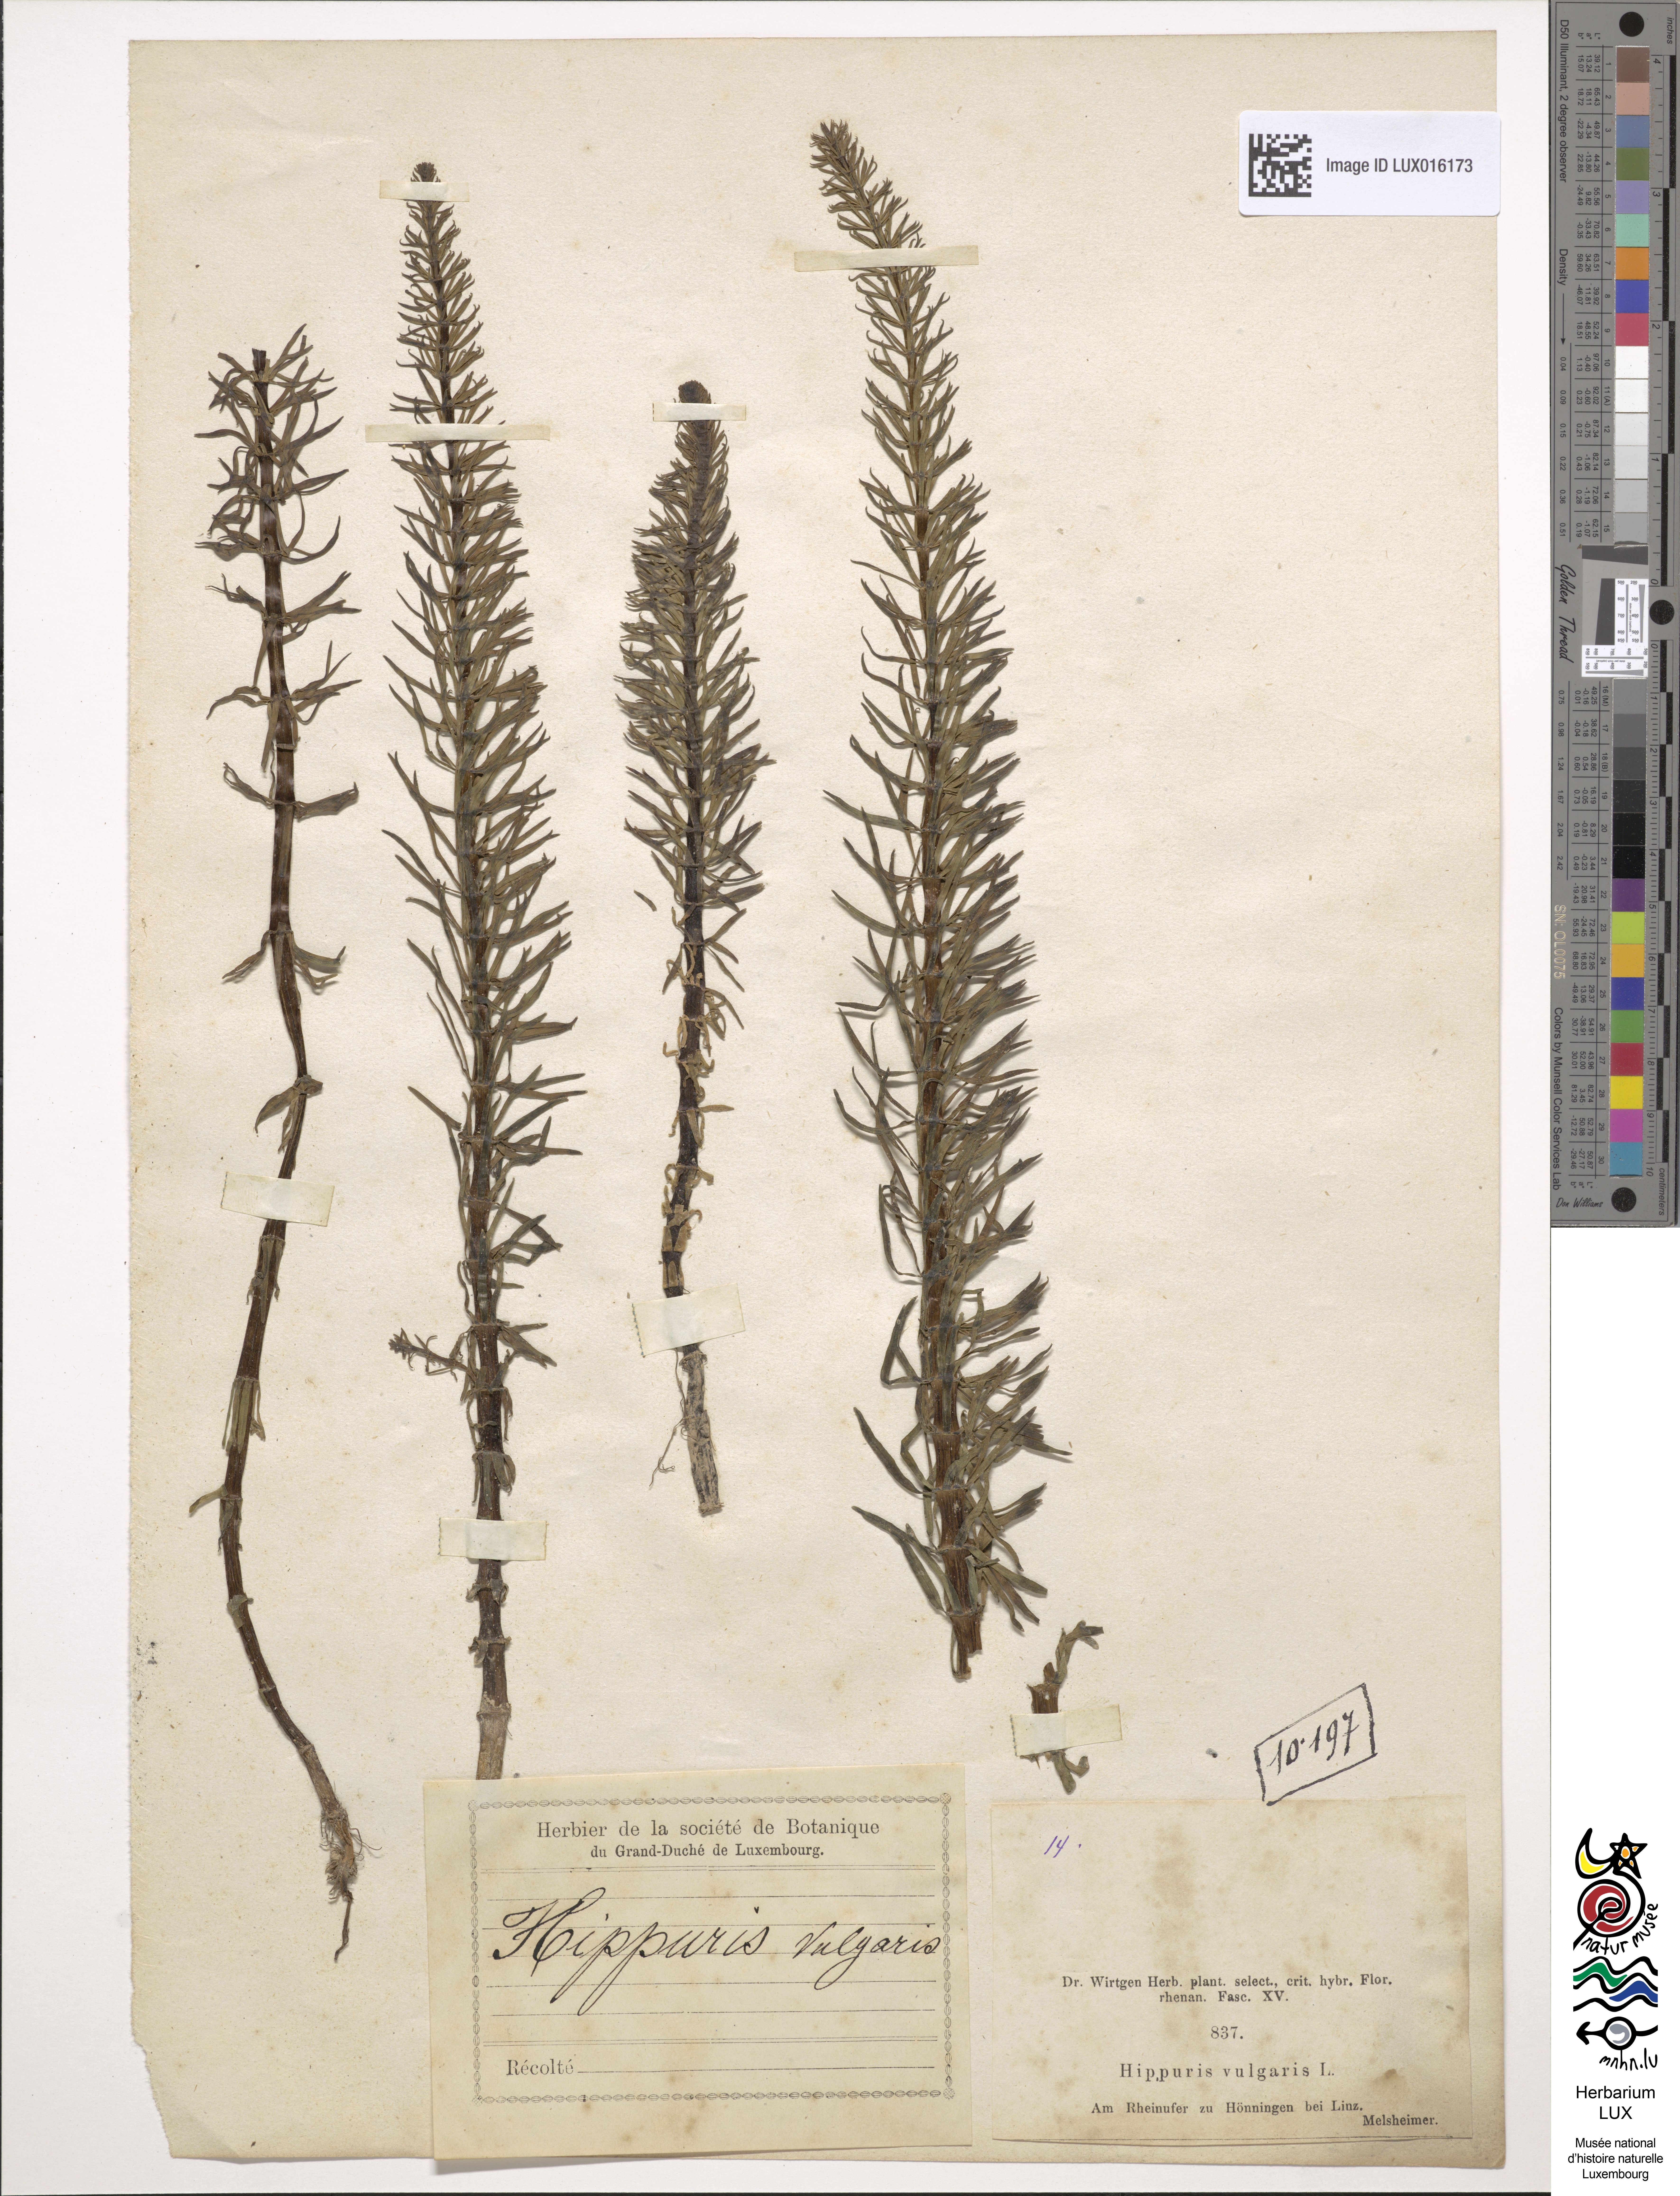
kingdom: Plantae
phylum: Tracheophyta
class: Magnoliopsida
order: Lamiales
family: Plantaginaceae
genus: Hippuris
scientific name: Hippuris vulgaris
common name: Mare's-tail
